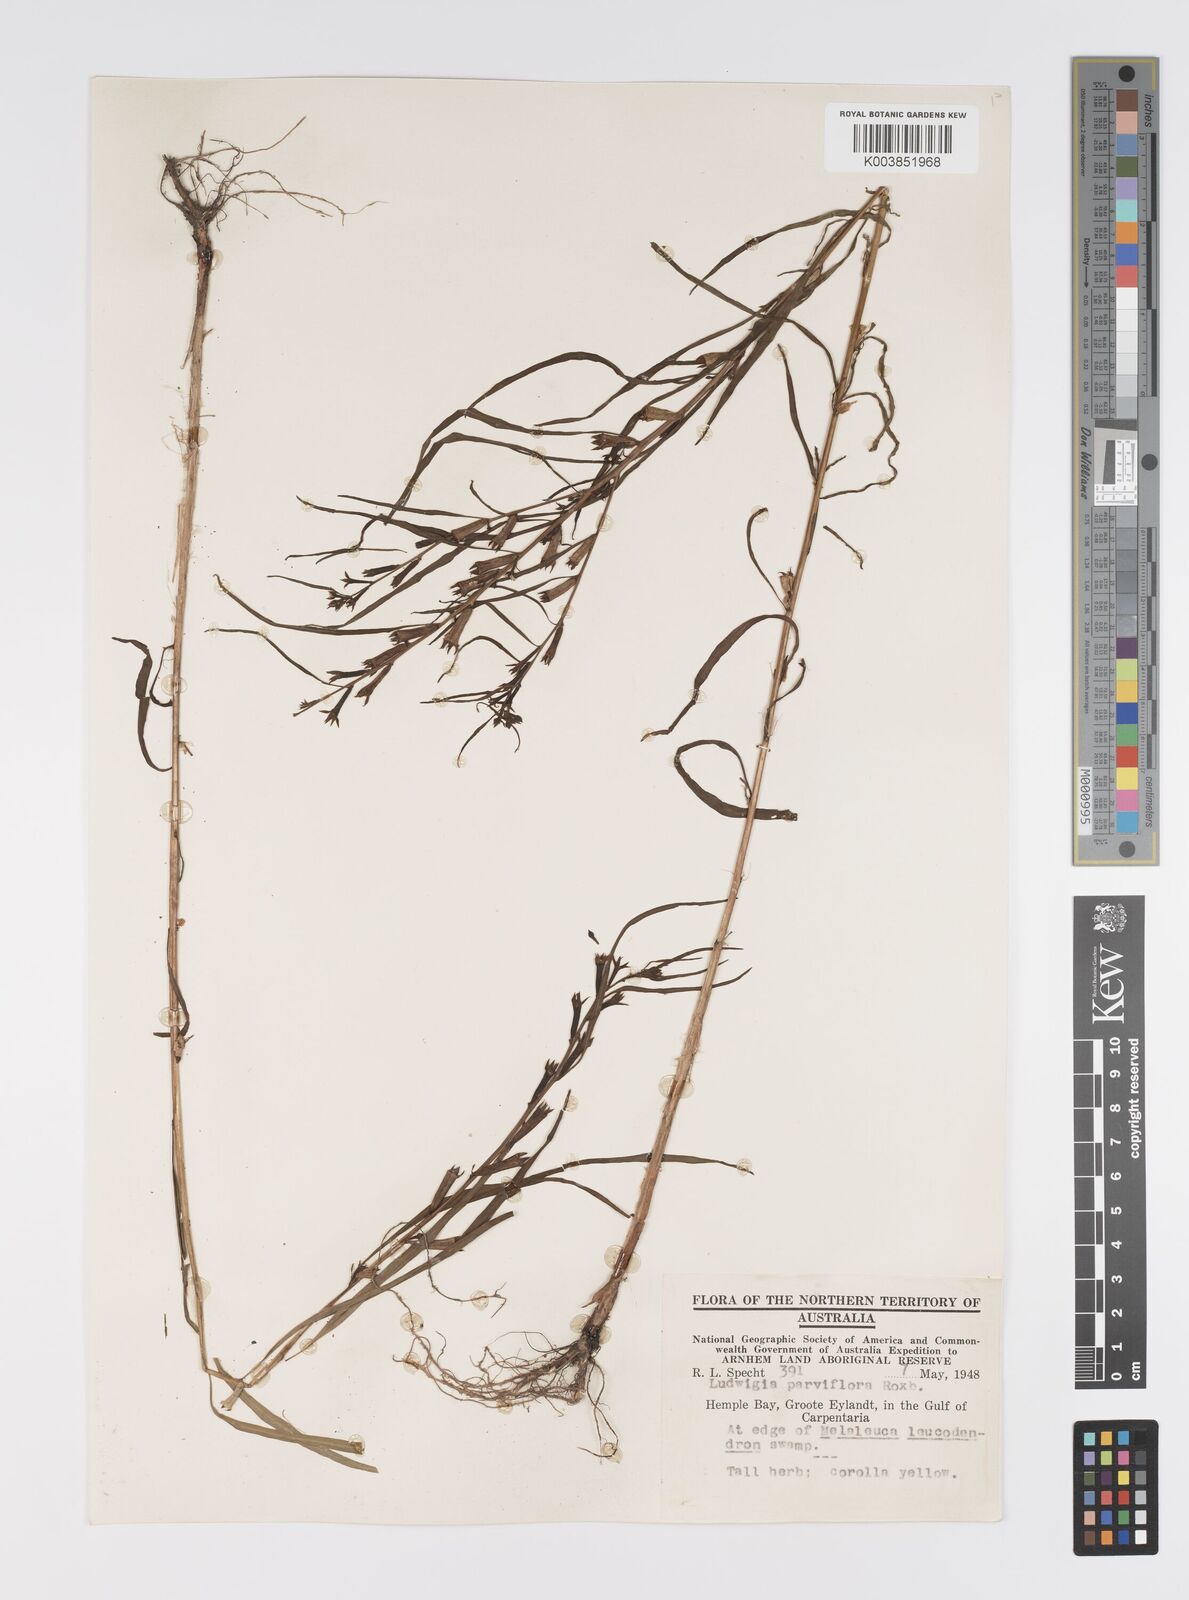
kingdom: Plantae
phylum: Tracheophyta
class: Magnoliopsida
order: Myrtales
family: Onagraceae
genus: Ludwigia
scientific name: Ludwigia perennis
